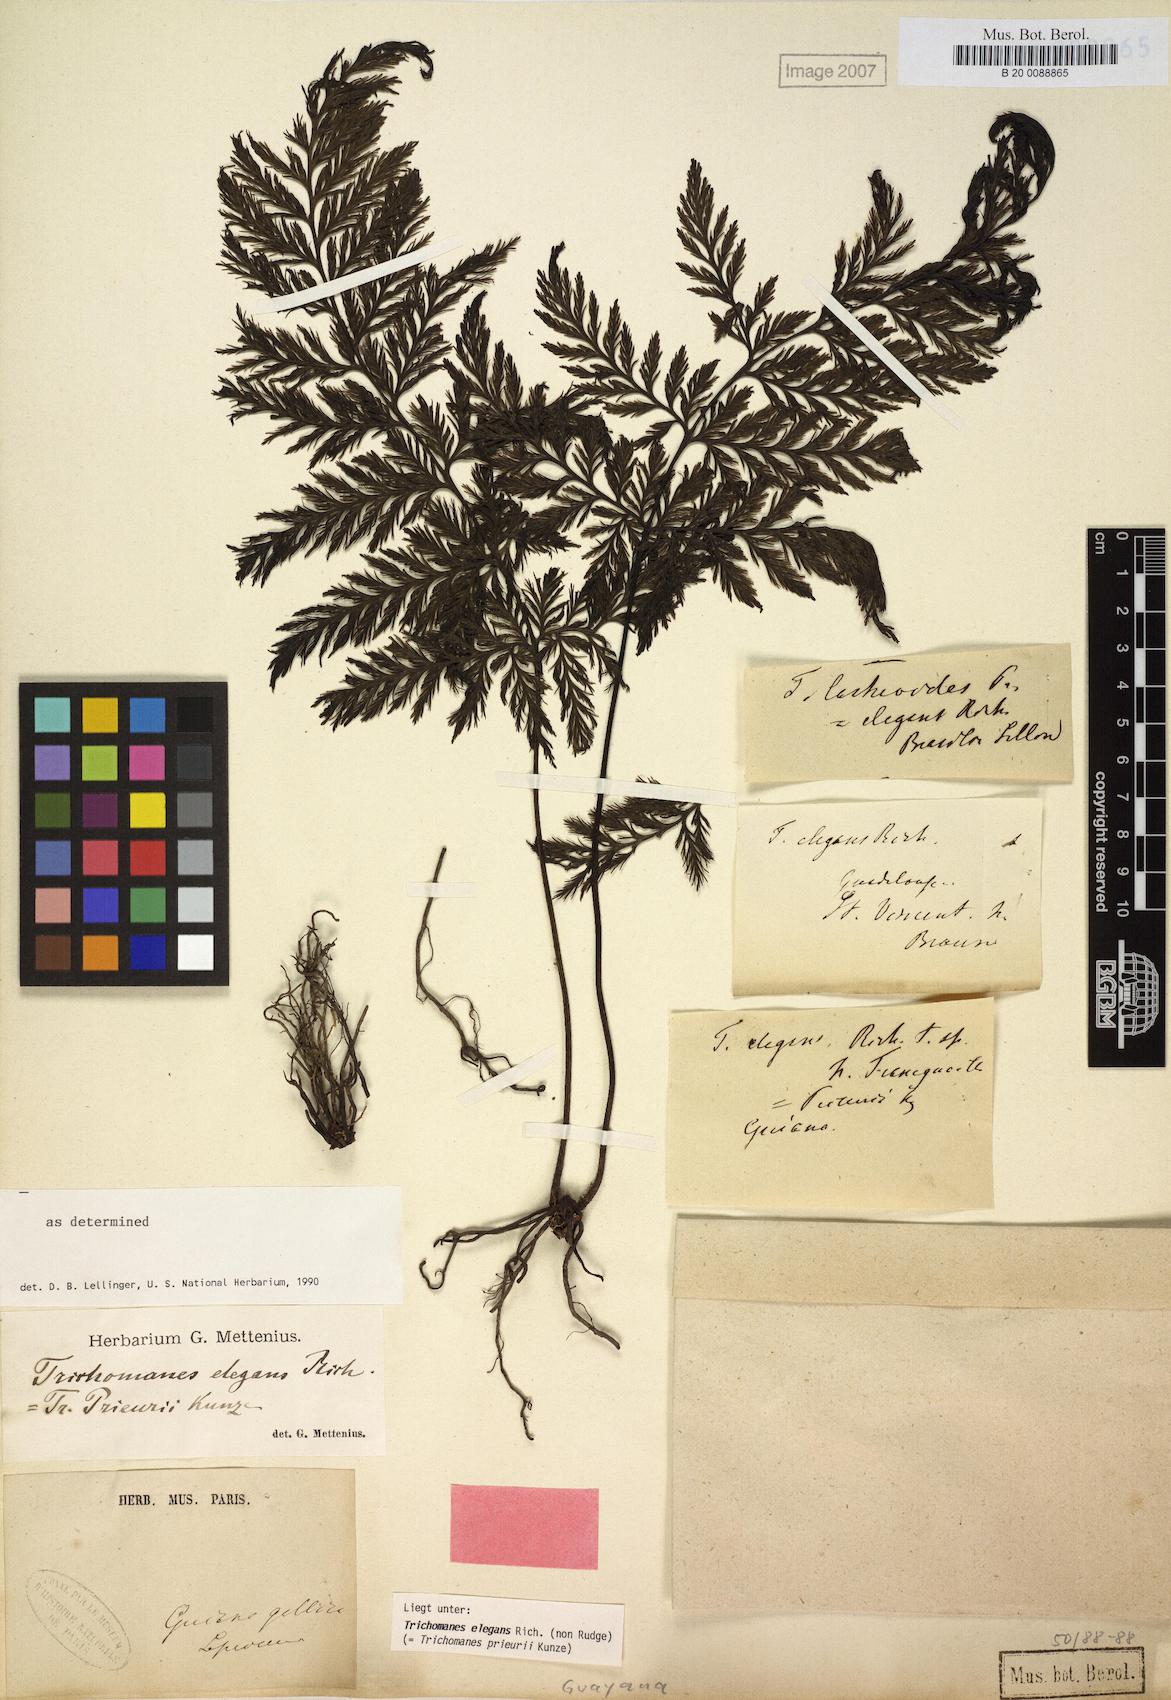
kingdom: Plantae
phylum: Tracheophyta
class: Polypodiopsida
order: Hymenophyllales
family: Hymenophyllaceae
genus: Trichomanes
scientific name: Trichomanes elegans
